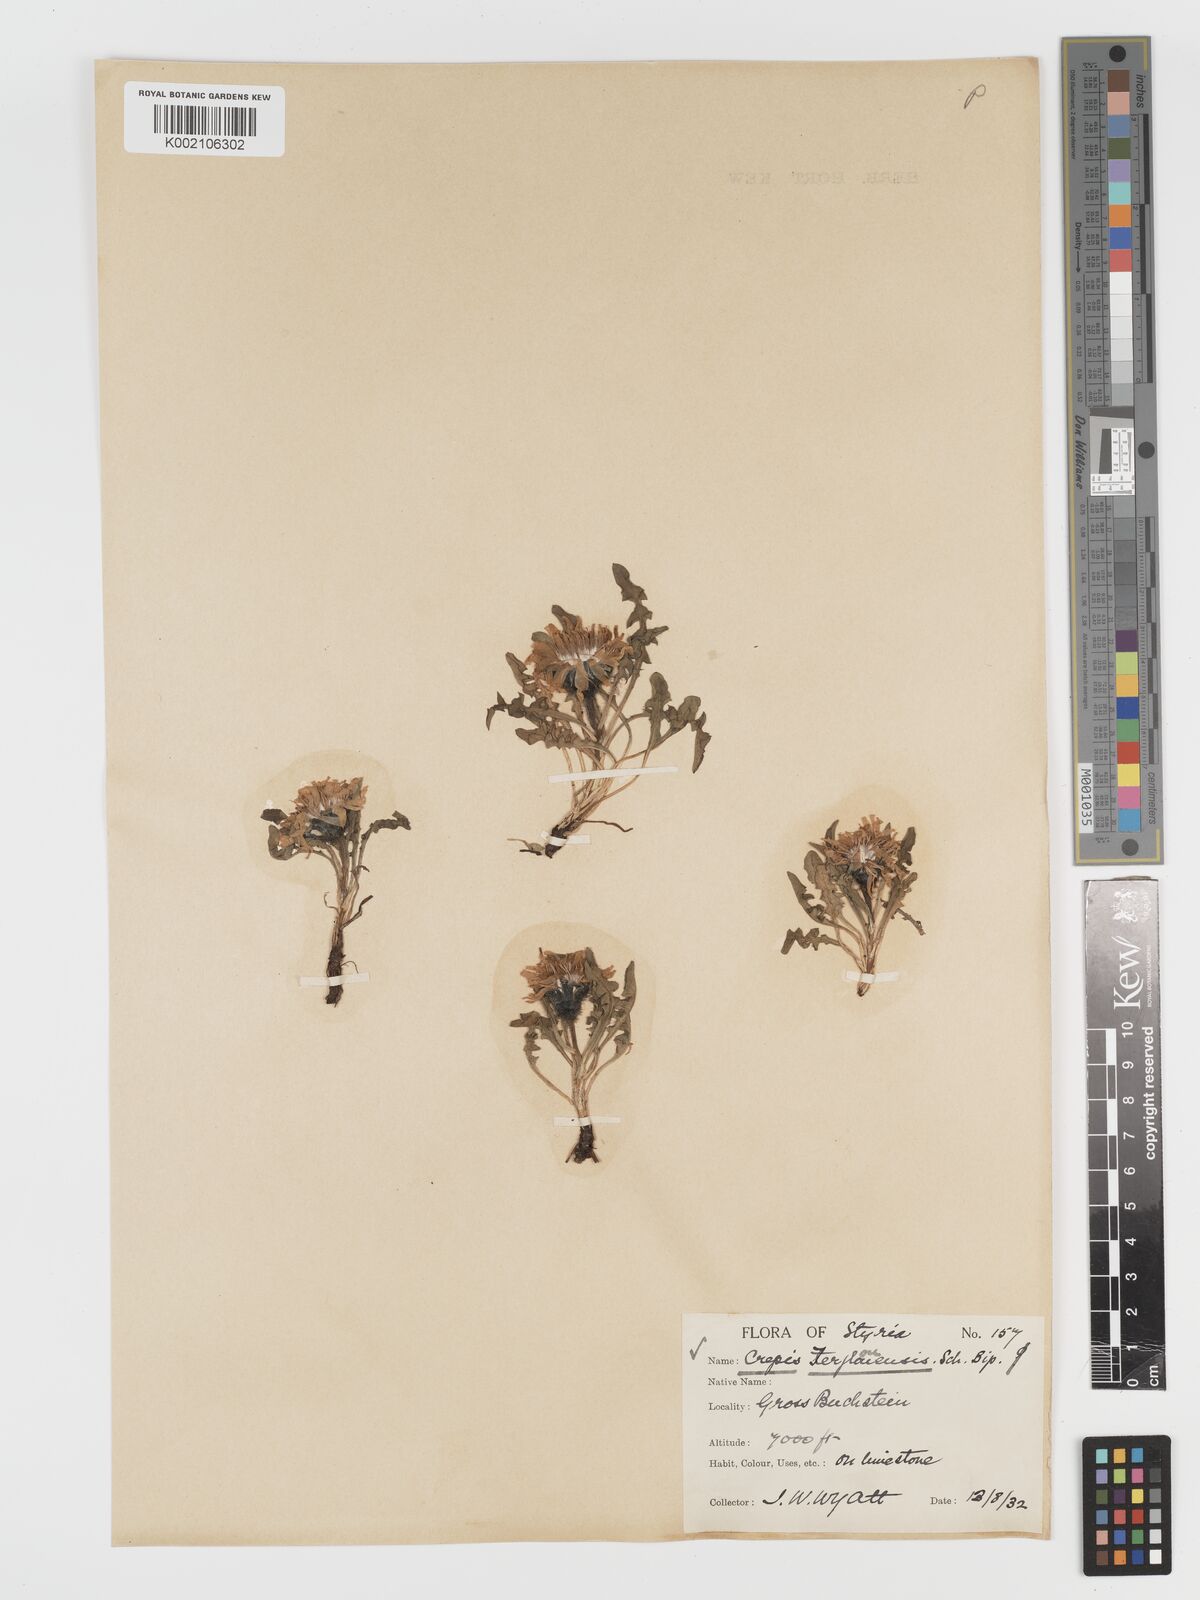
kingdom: Plantae
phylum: Tracheophyta
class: Magnoliopsida
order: Asterales
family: Asteraceae
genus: Crepis
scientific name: Crepis terglouensis
